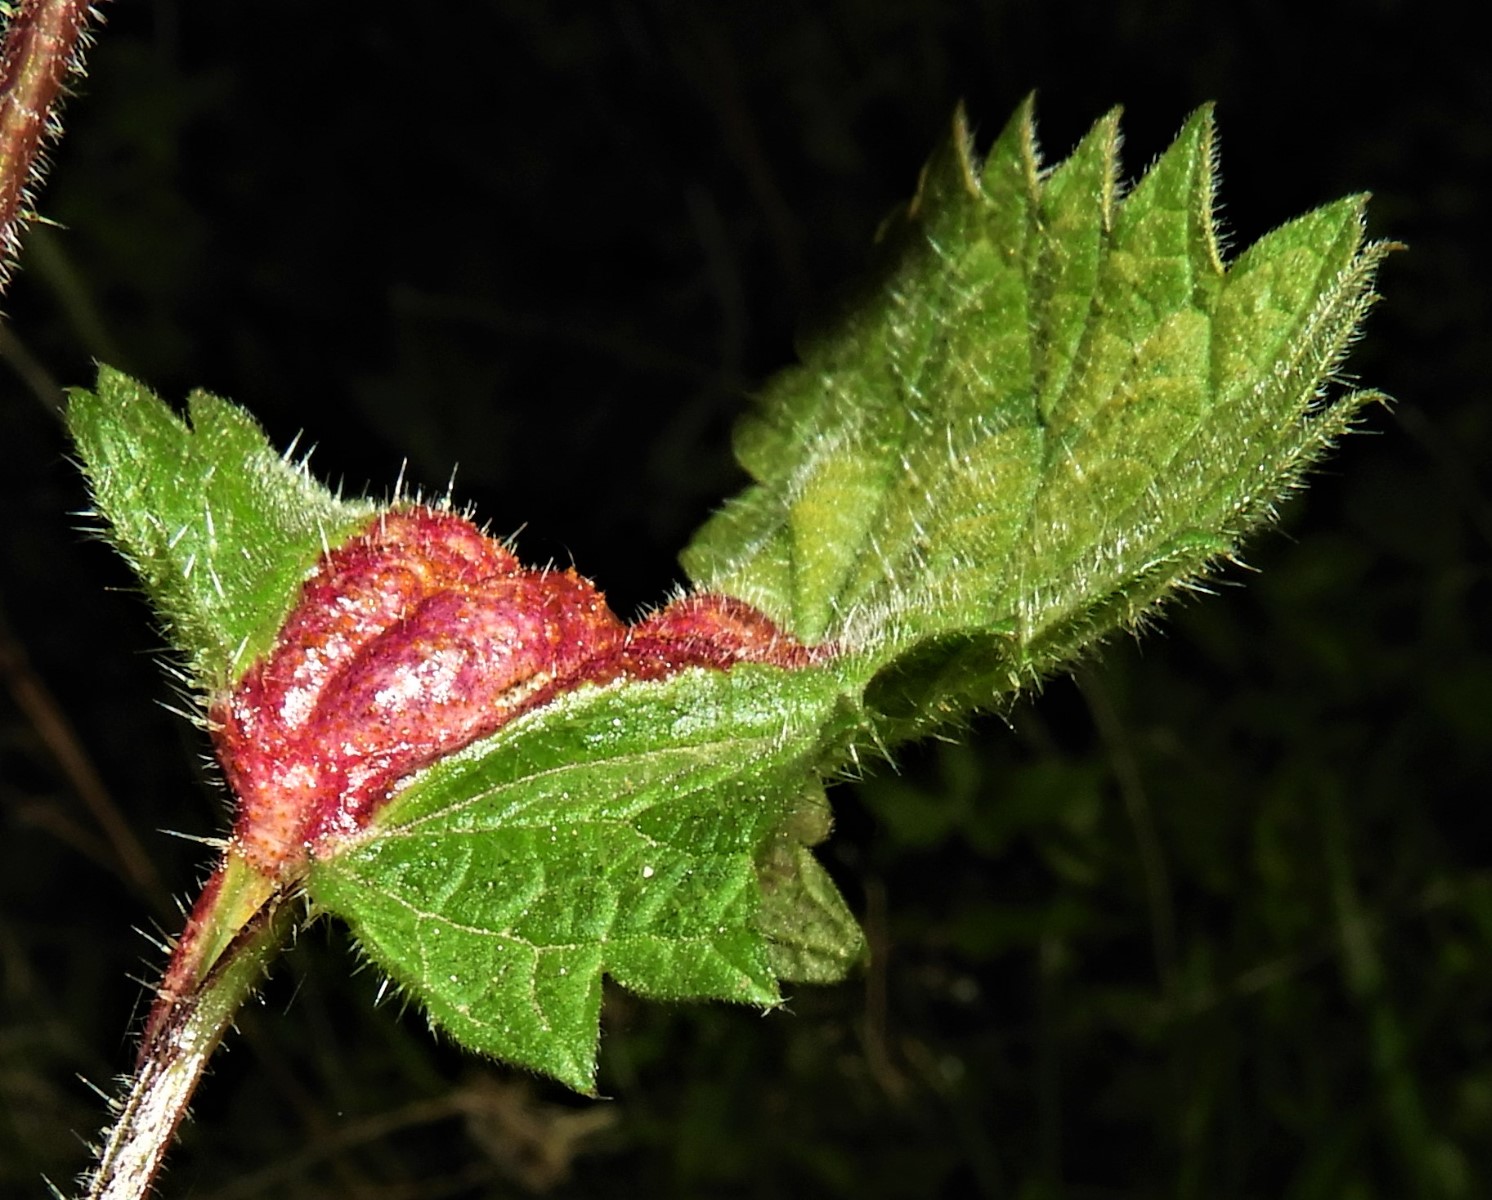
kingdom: Fungi
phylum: Basidiomycota
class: Pucciniomycetes
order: Pucciniales
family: Pucciniaceae
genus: Puccinia
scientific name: Puccinia urticata
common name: nældegalle-tvecellerust
